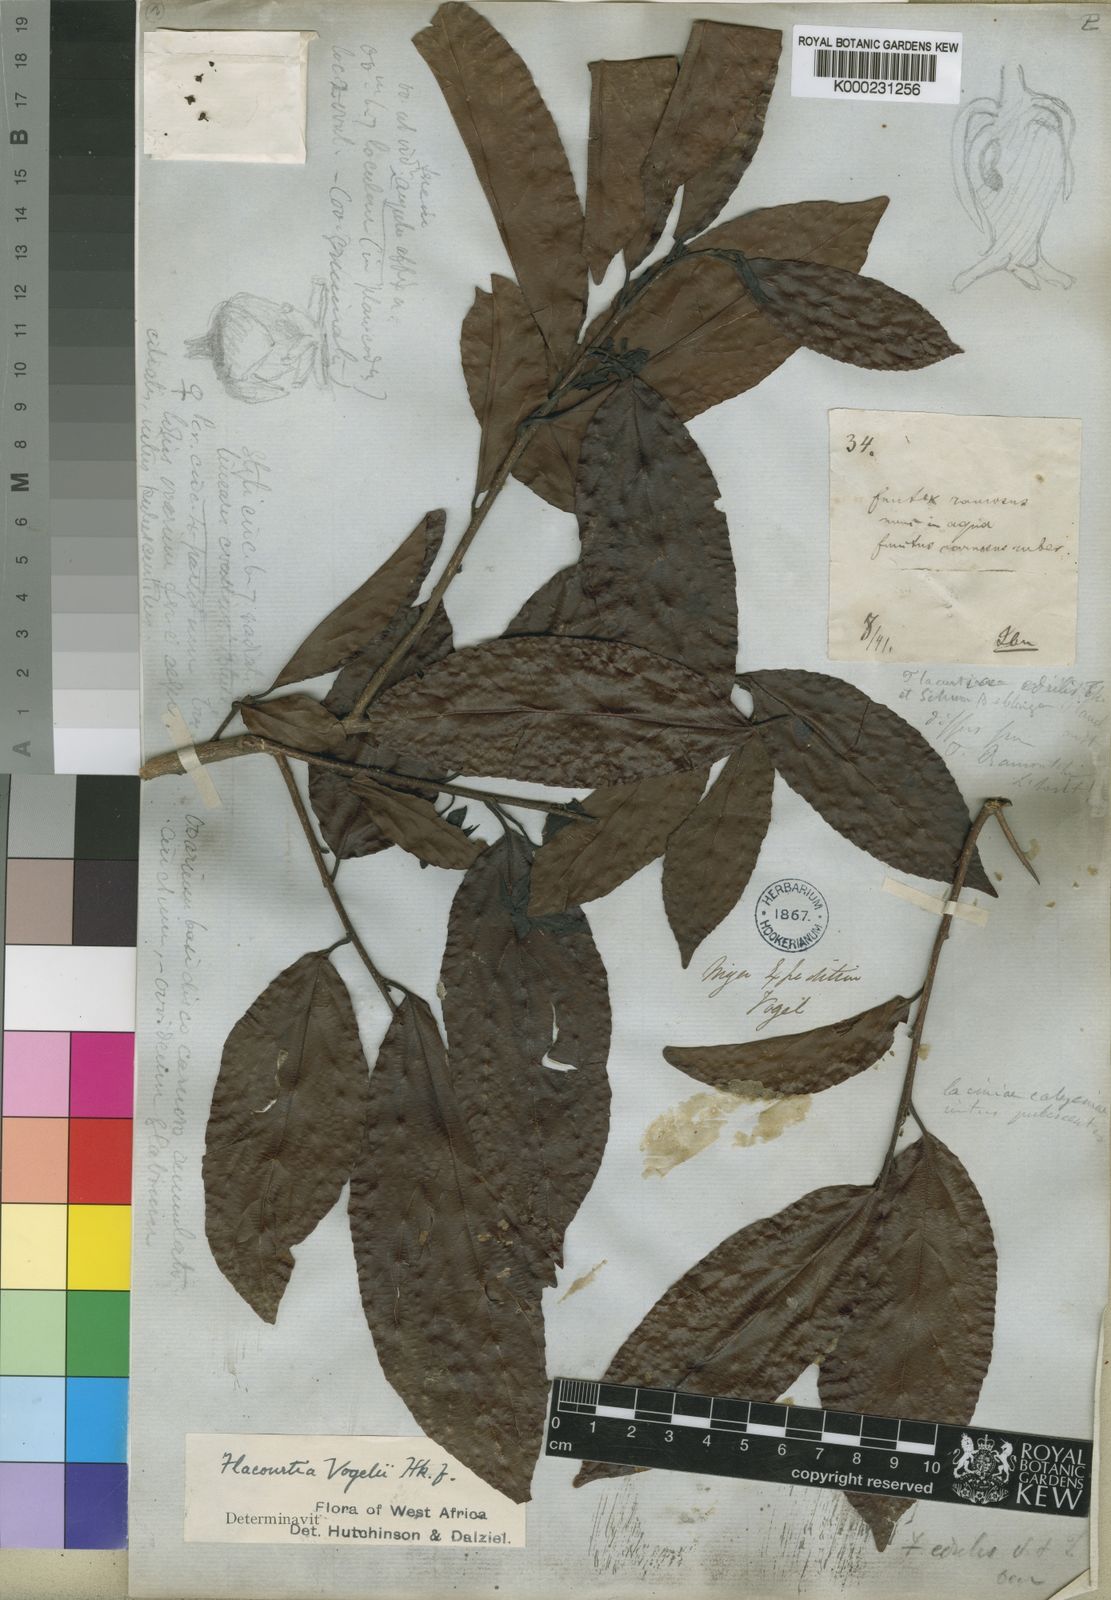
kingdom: Plantae
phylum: Tracheophyta
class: Magnoliopsida
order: Malpighiales
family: Salicaceae
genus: Flacourtia
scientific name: Flacourtia vogelii
